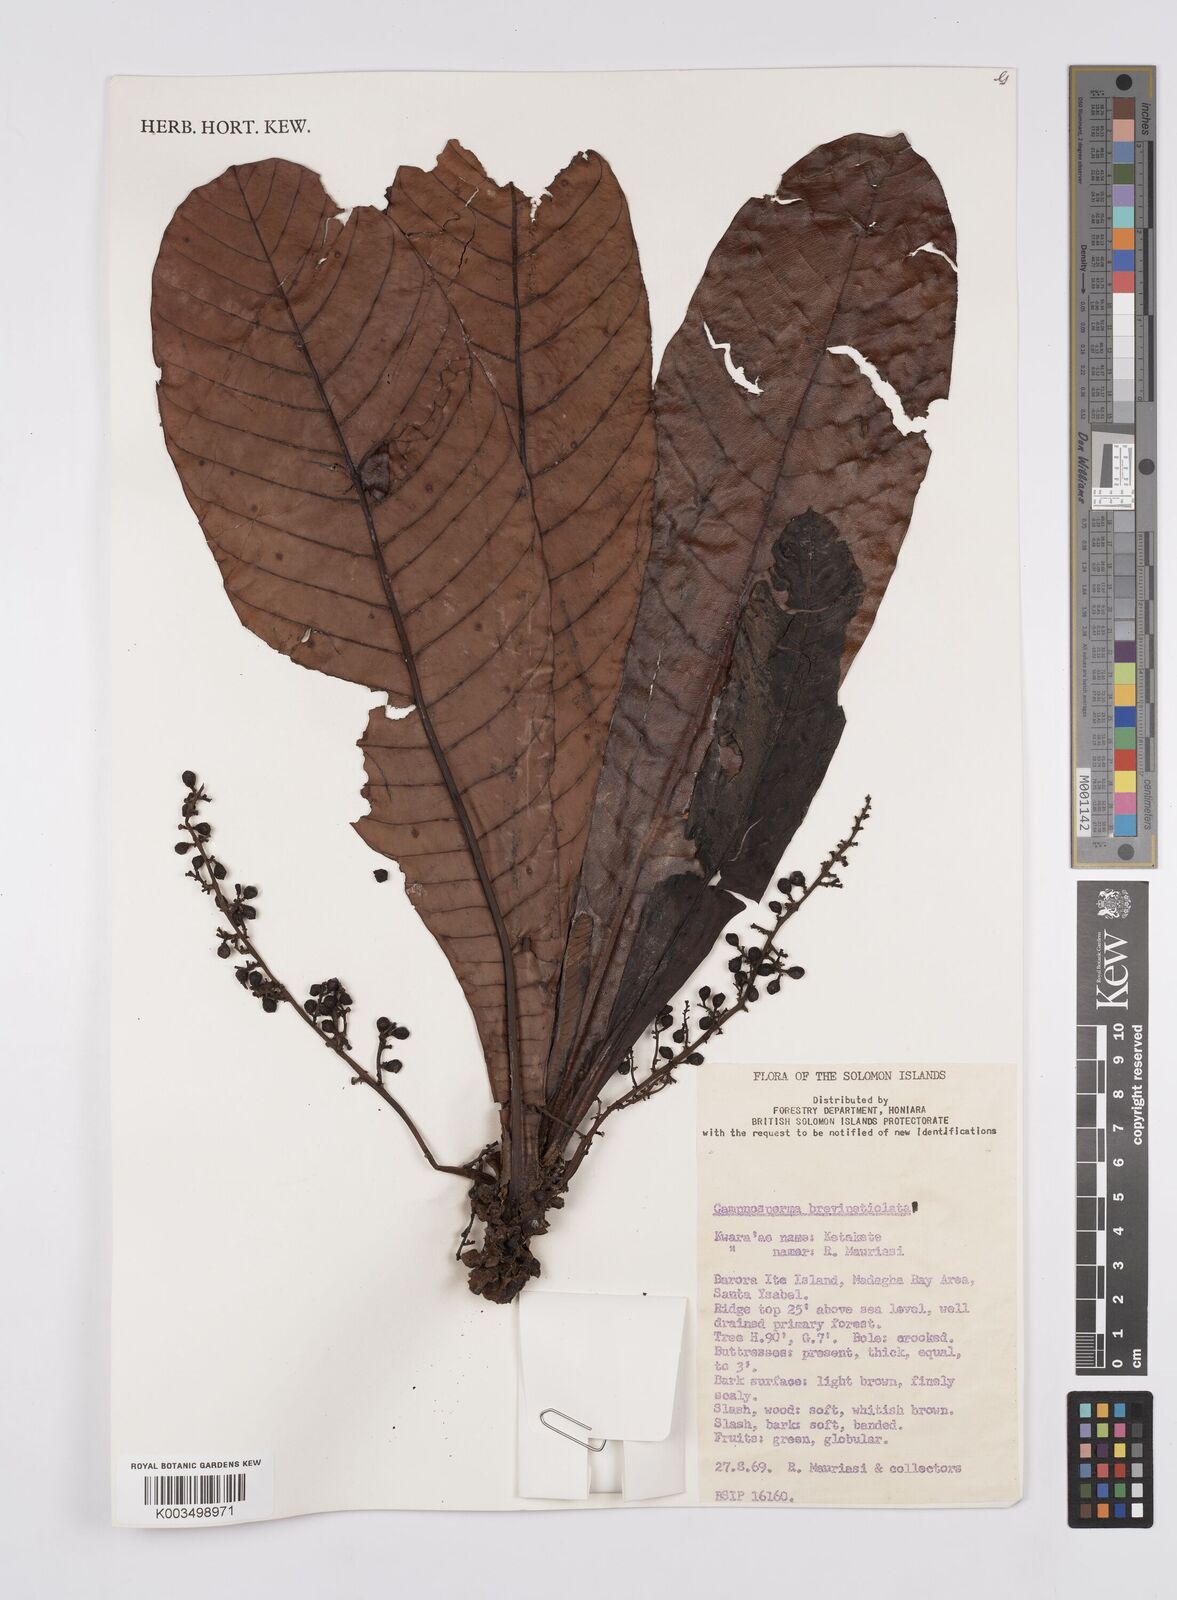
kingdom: Plantae
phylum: Tracheophyta
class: Magnoliopsida
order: Sapindales
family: Anacardiaceae
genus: Campnosperma
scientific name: Campnosperma brevipetiolatum
